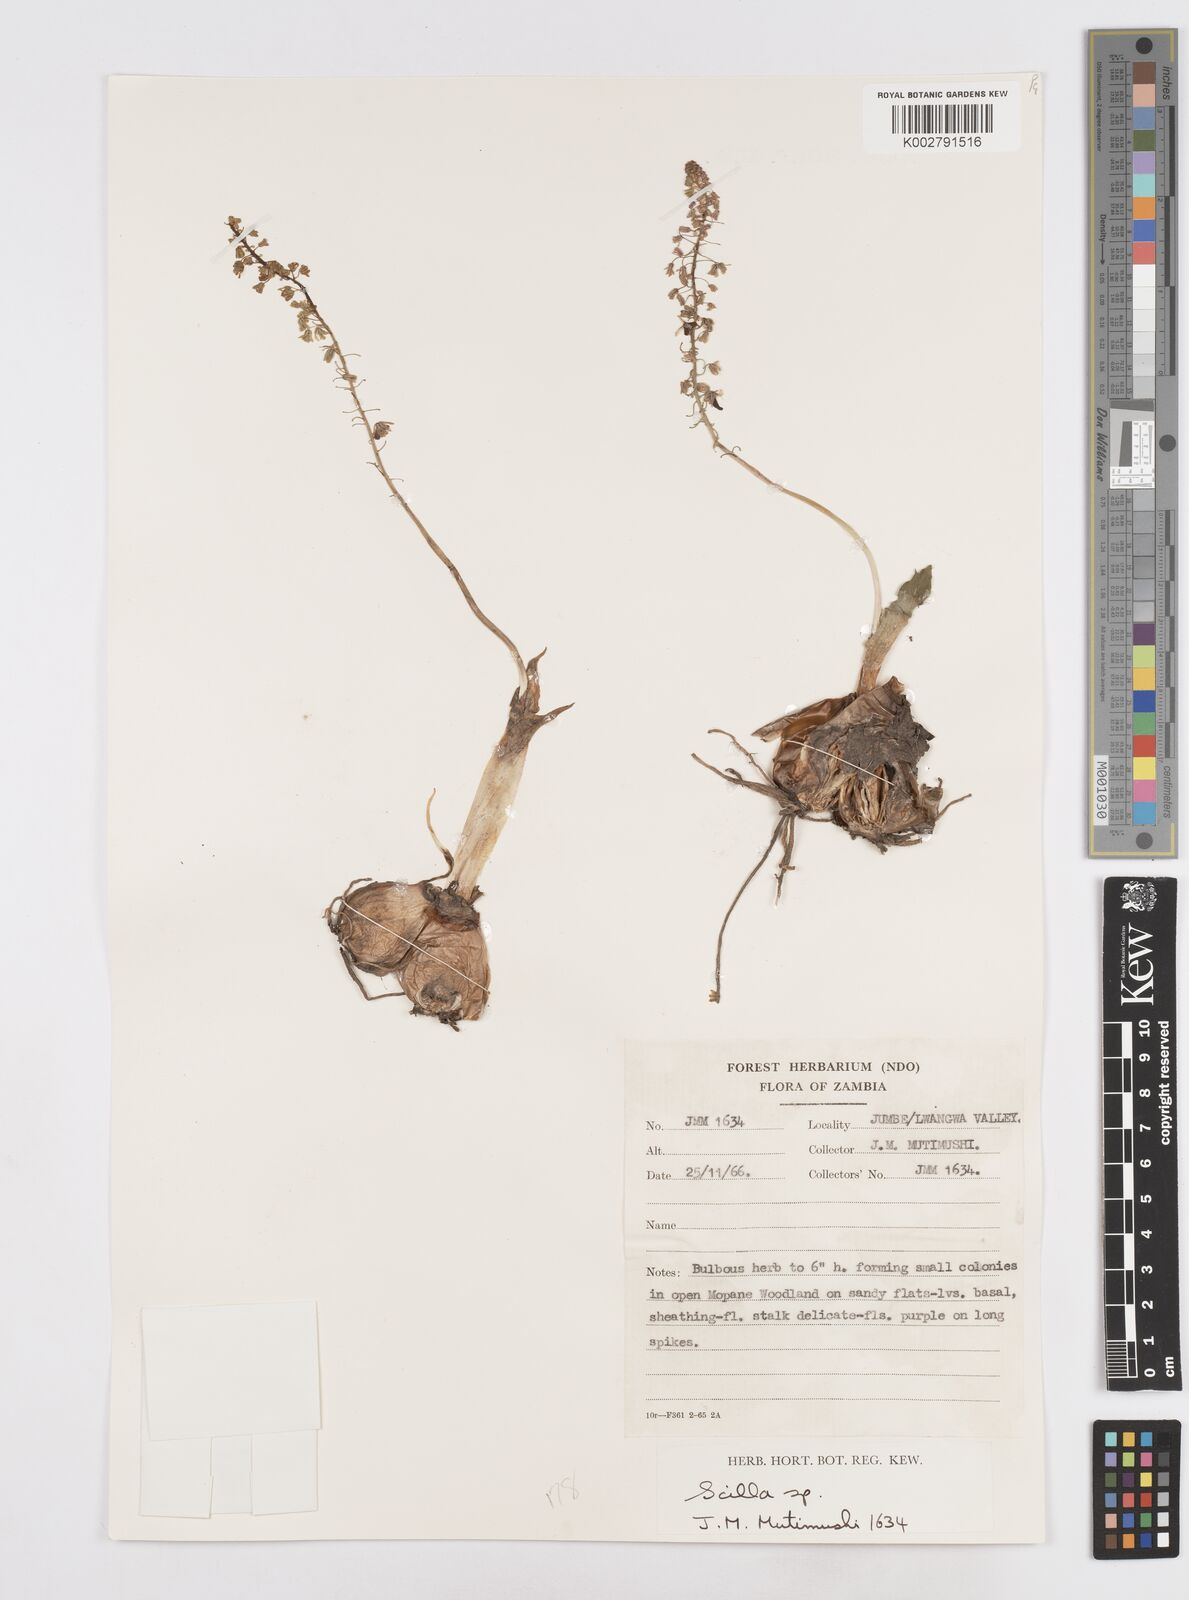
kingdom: Plantae
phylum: Tracheophyta
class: Liliopsida
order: Asparagales
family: Asparagaceae
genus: Scilla
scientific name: Scilla
